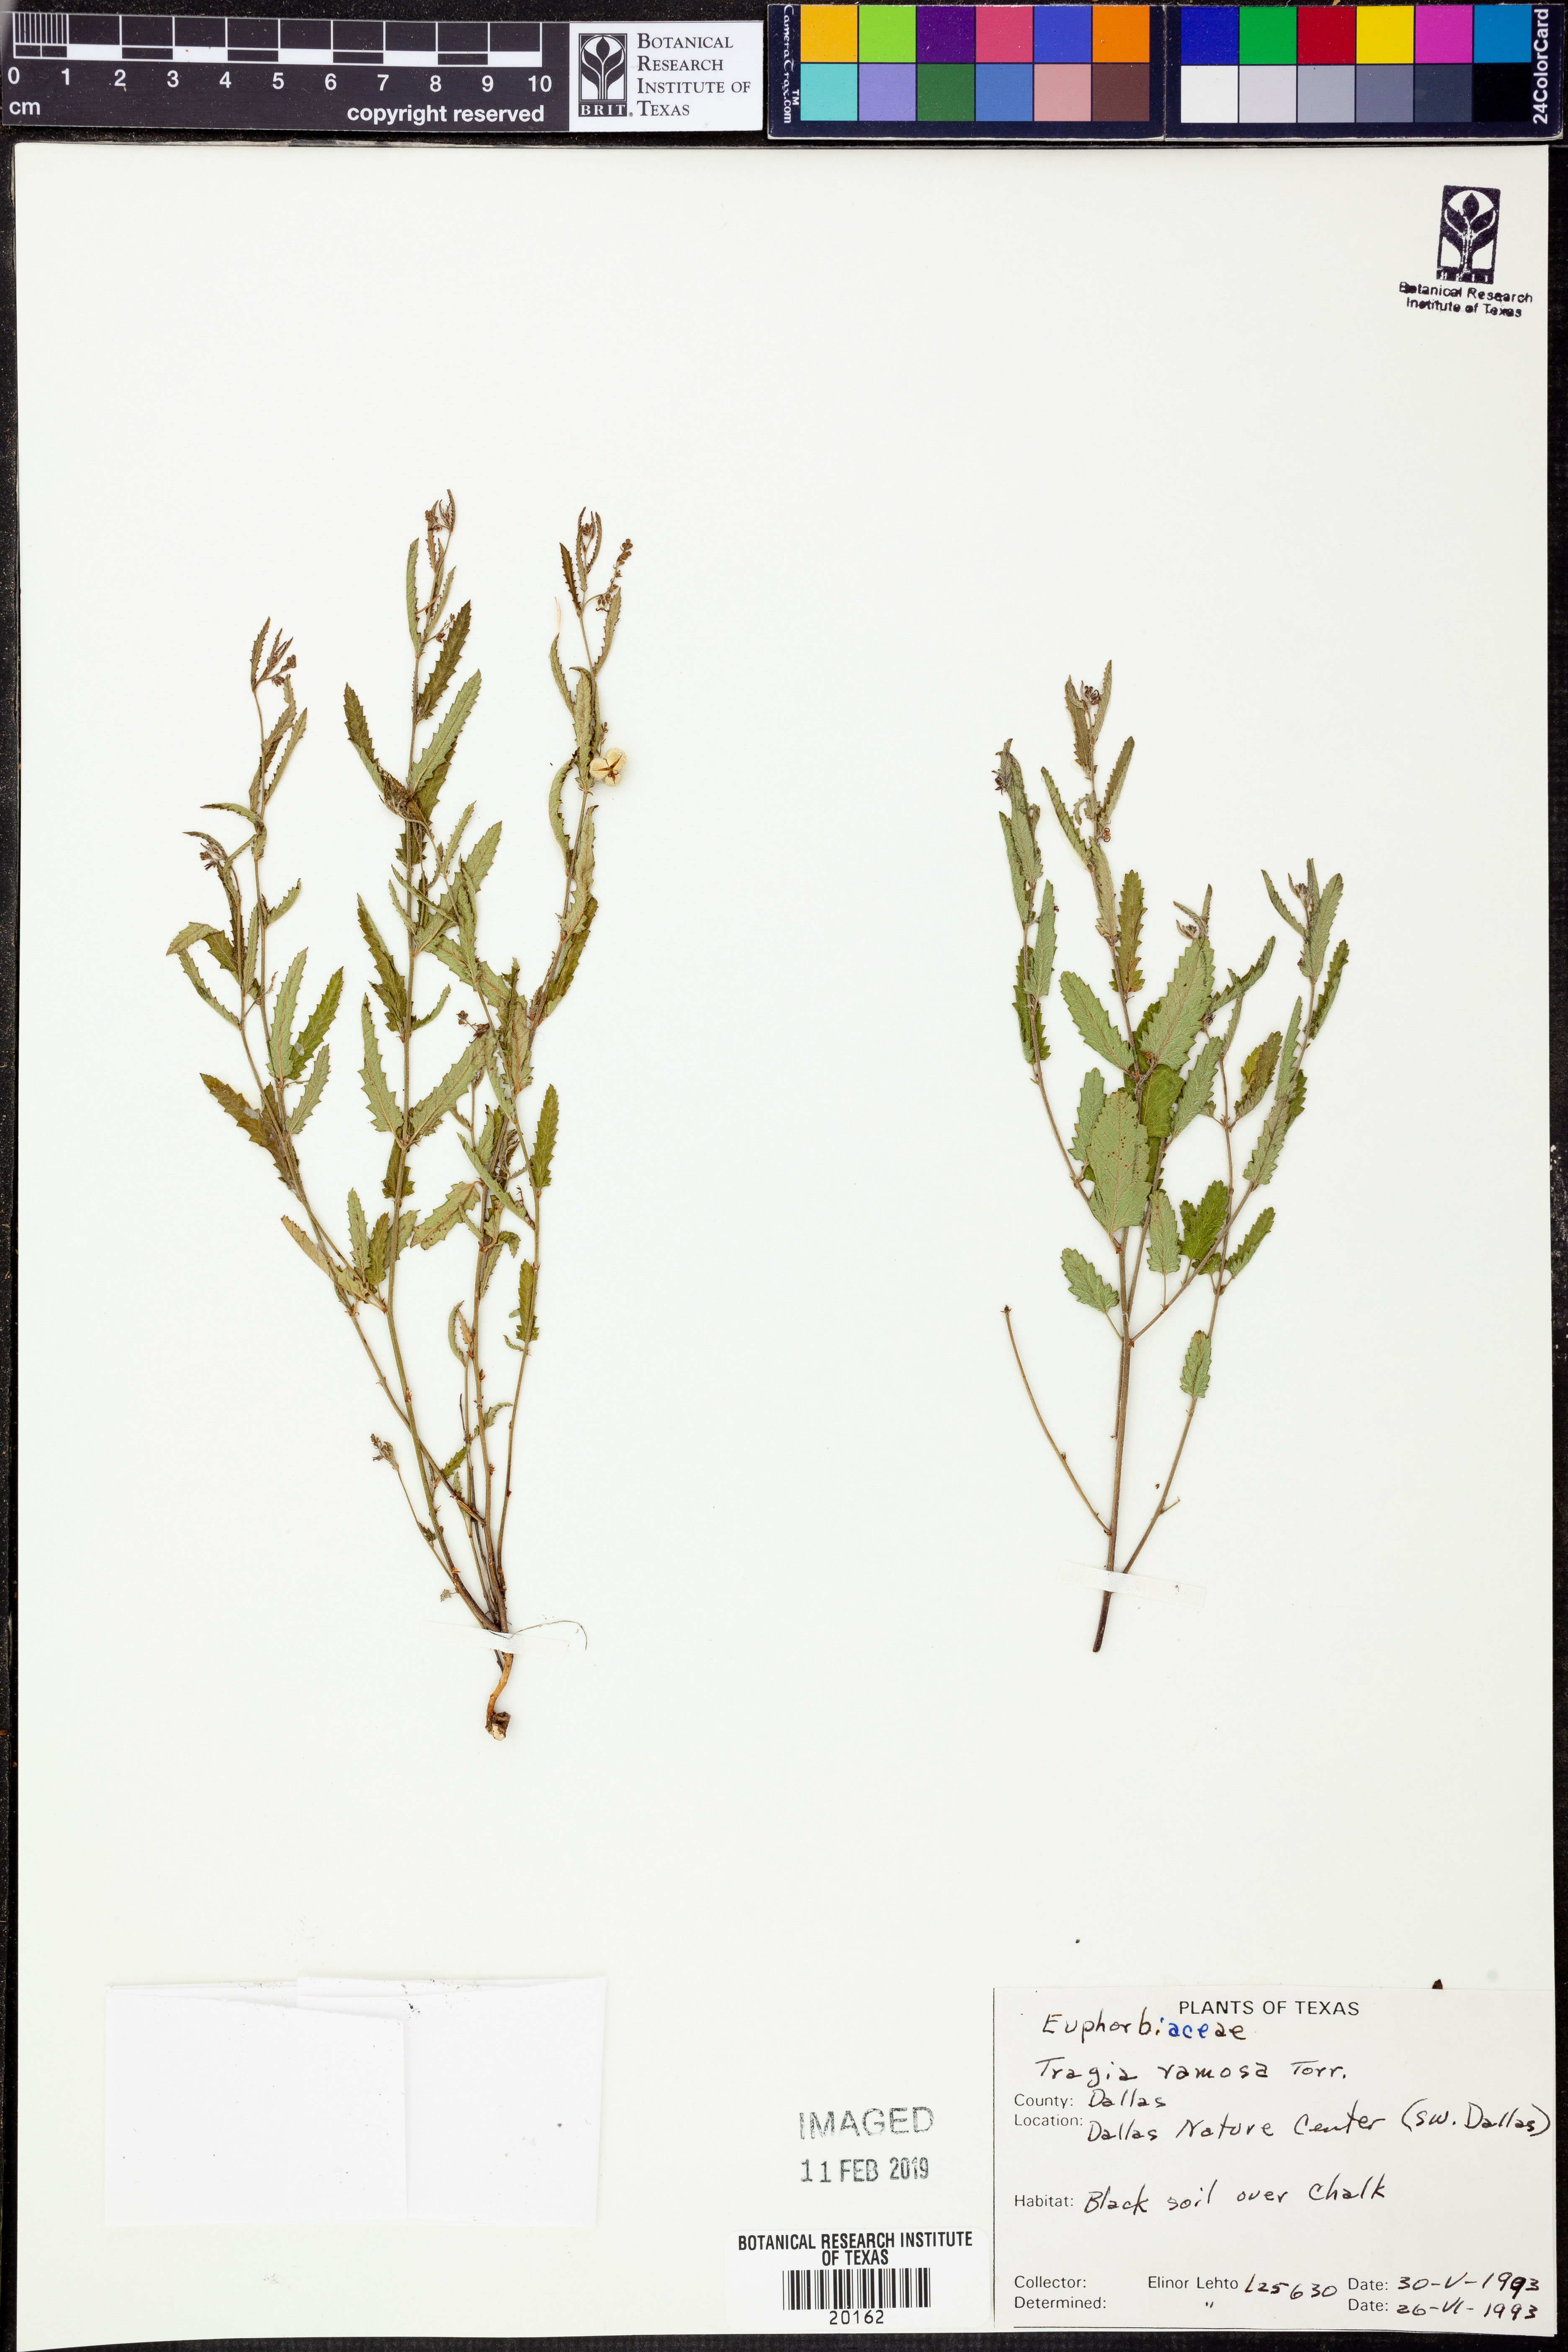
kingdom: Plantae
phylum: Tracheophyta
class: Magnoliopsida
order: Malpighiales
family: Euphorbiaceae
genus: Tragia
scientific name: Tragia ramosa
